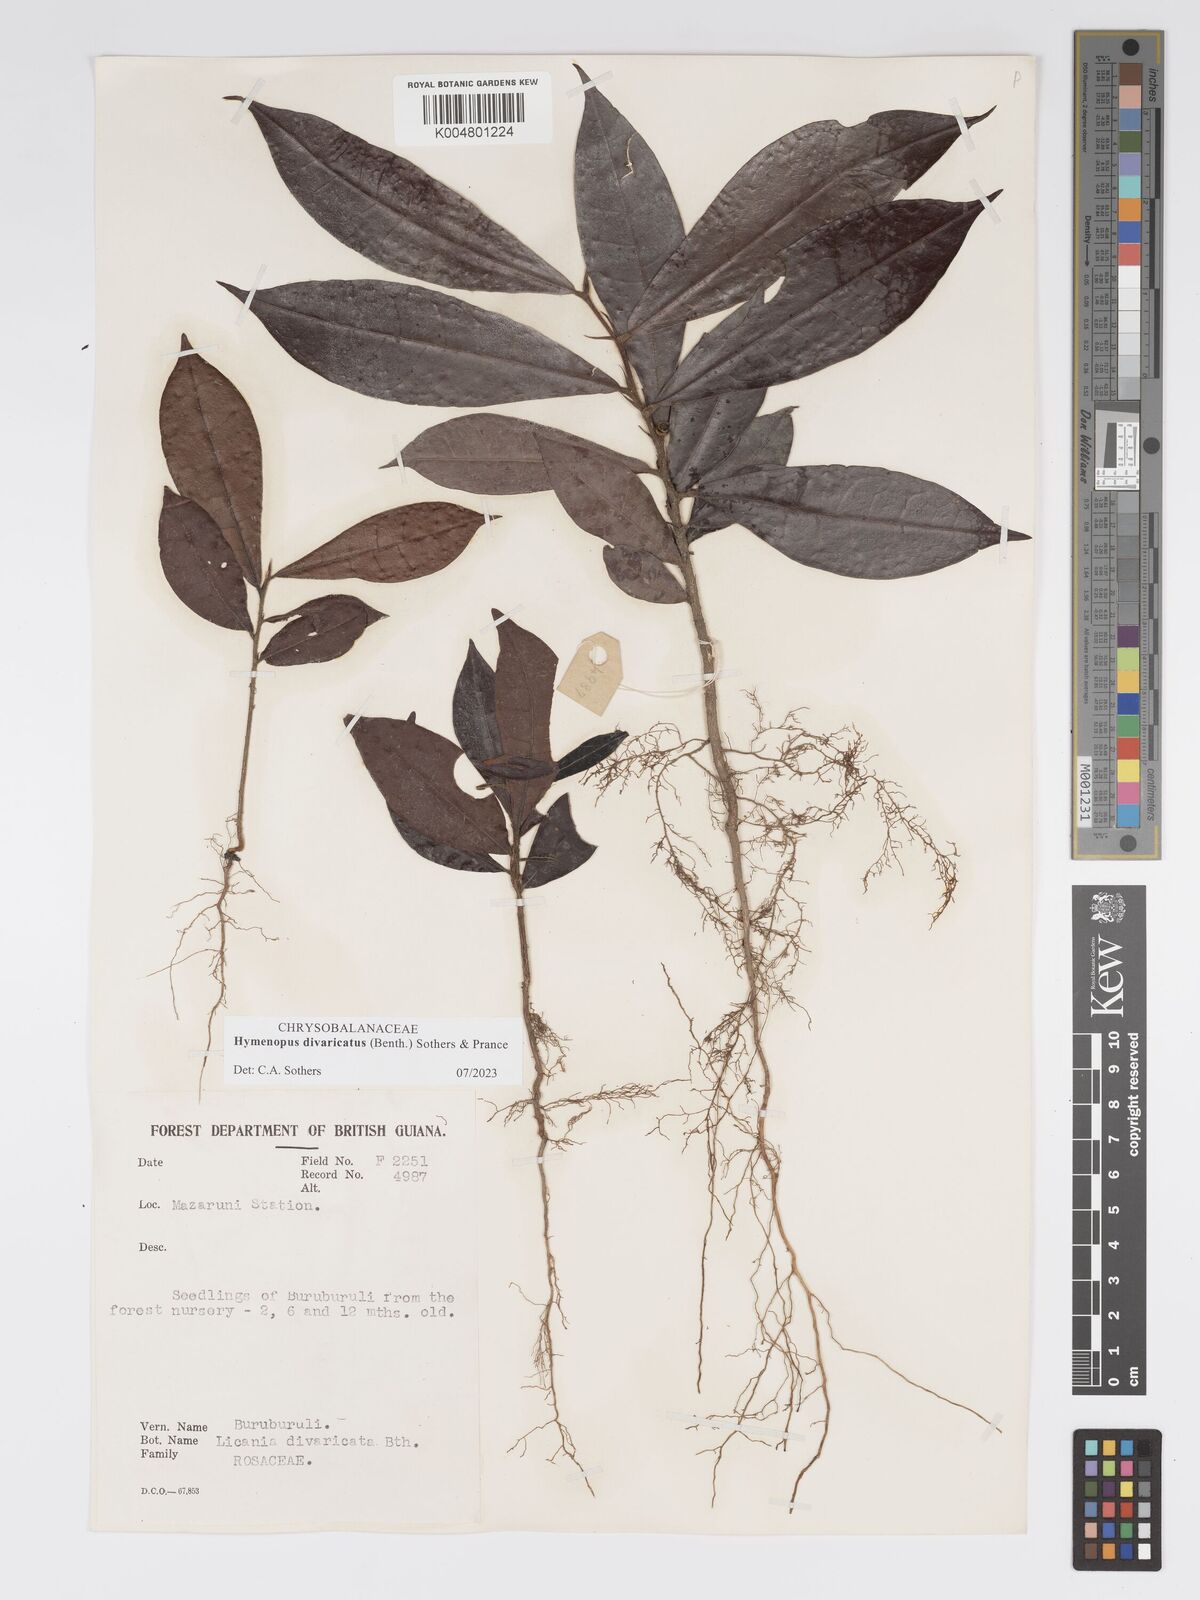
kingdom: Plantae
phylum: Tracheophyta
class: Magnoliopsida
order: Malpighiales
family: Chrysobalanaceae
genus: Hymenopus
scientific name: Hymenopus divaricatus
